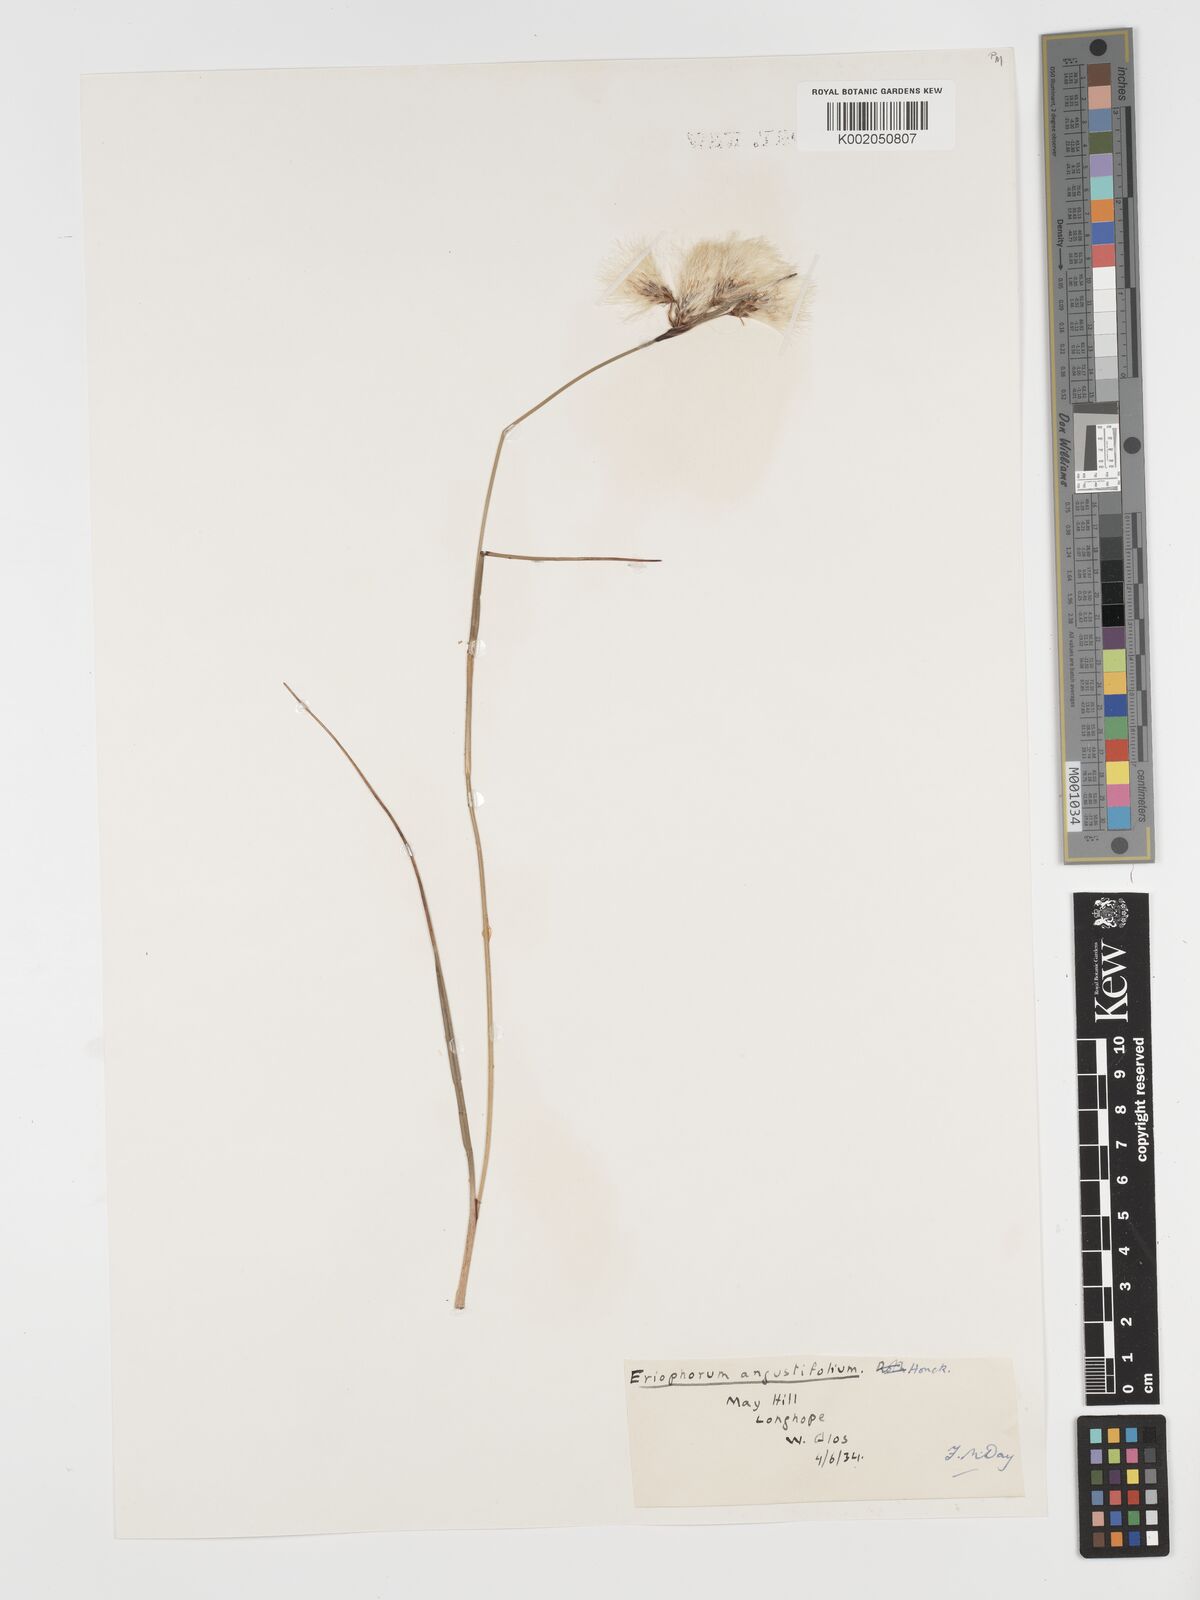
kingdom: Plantae
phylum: Tracheophyta
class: Liliopsida
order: Poales
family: Cyperaceae
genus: Eriophorum
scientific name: Eriophorum angustifolium
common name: Common cottongrass
